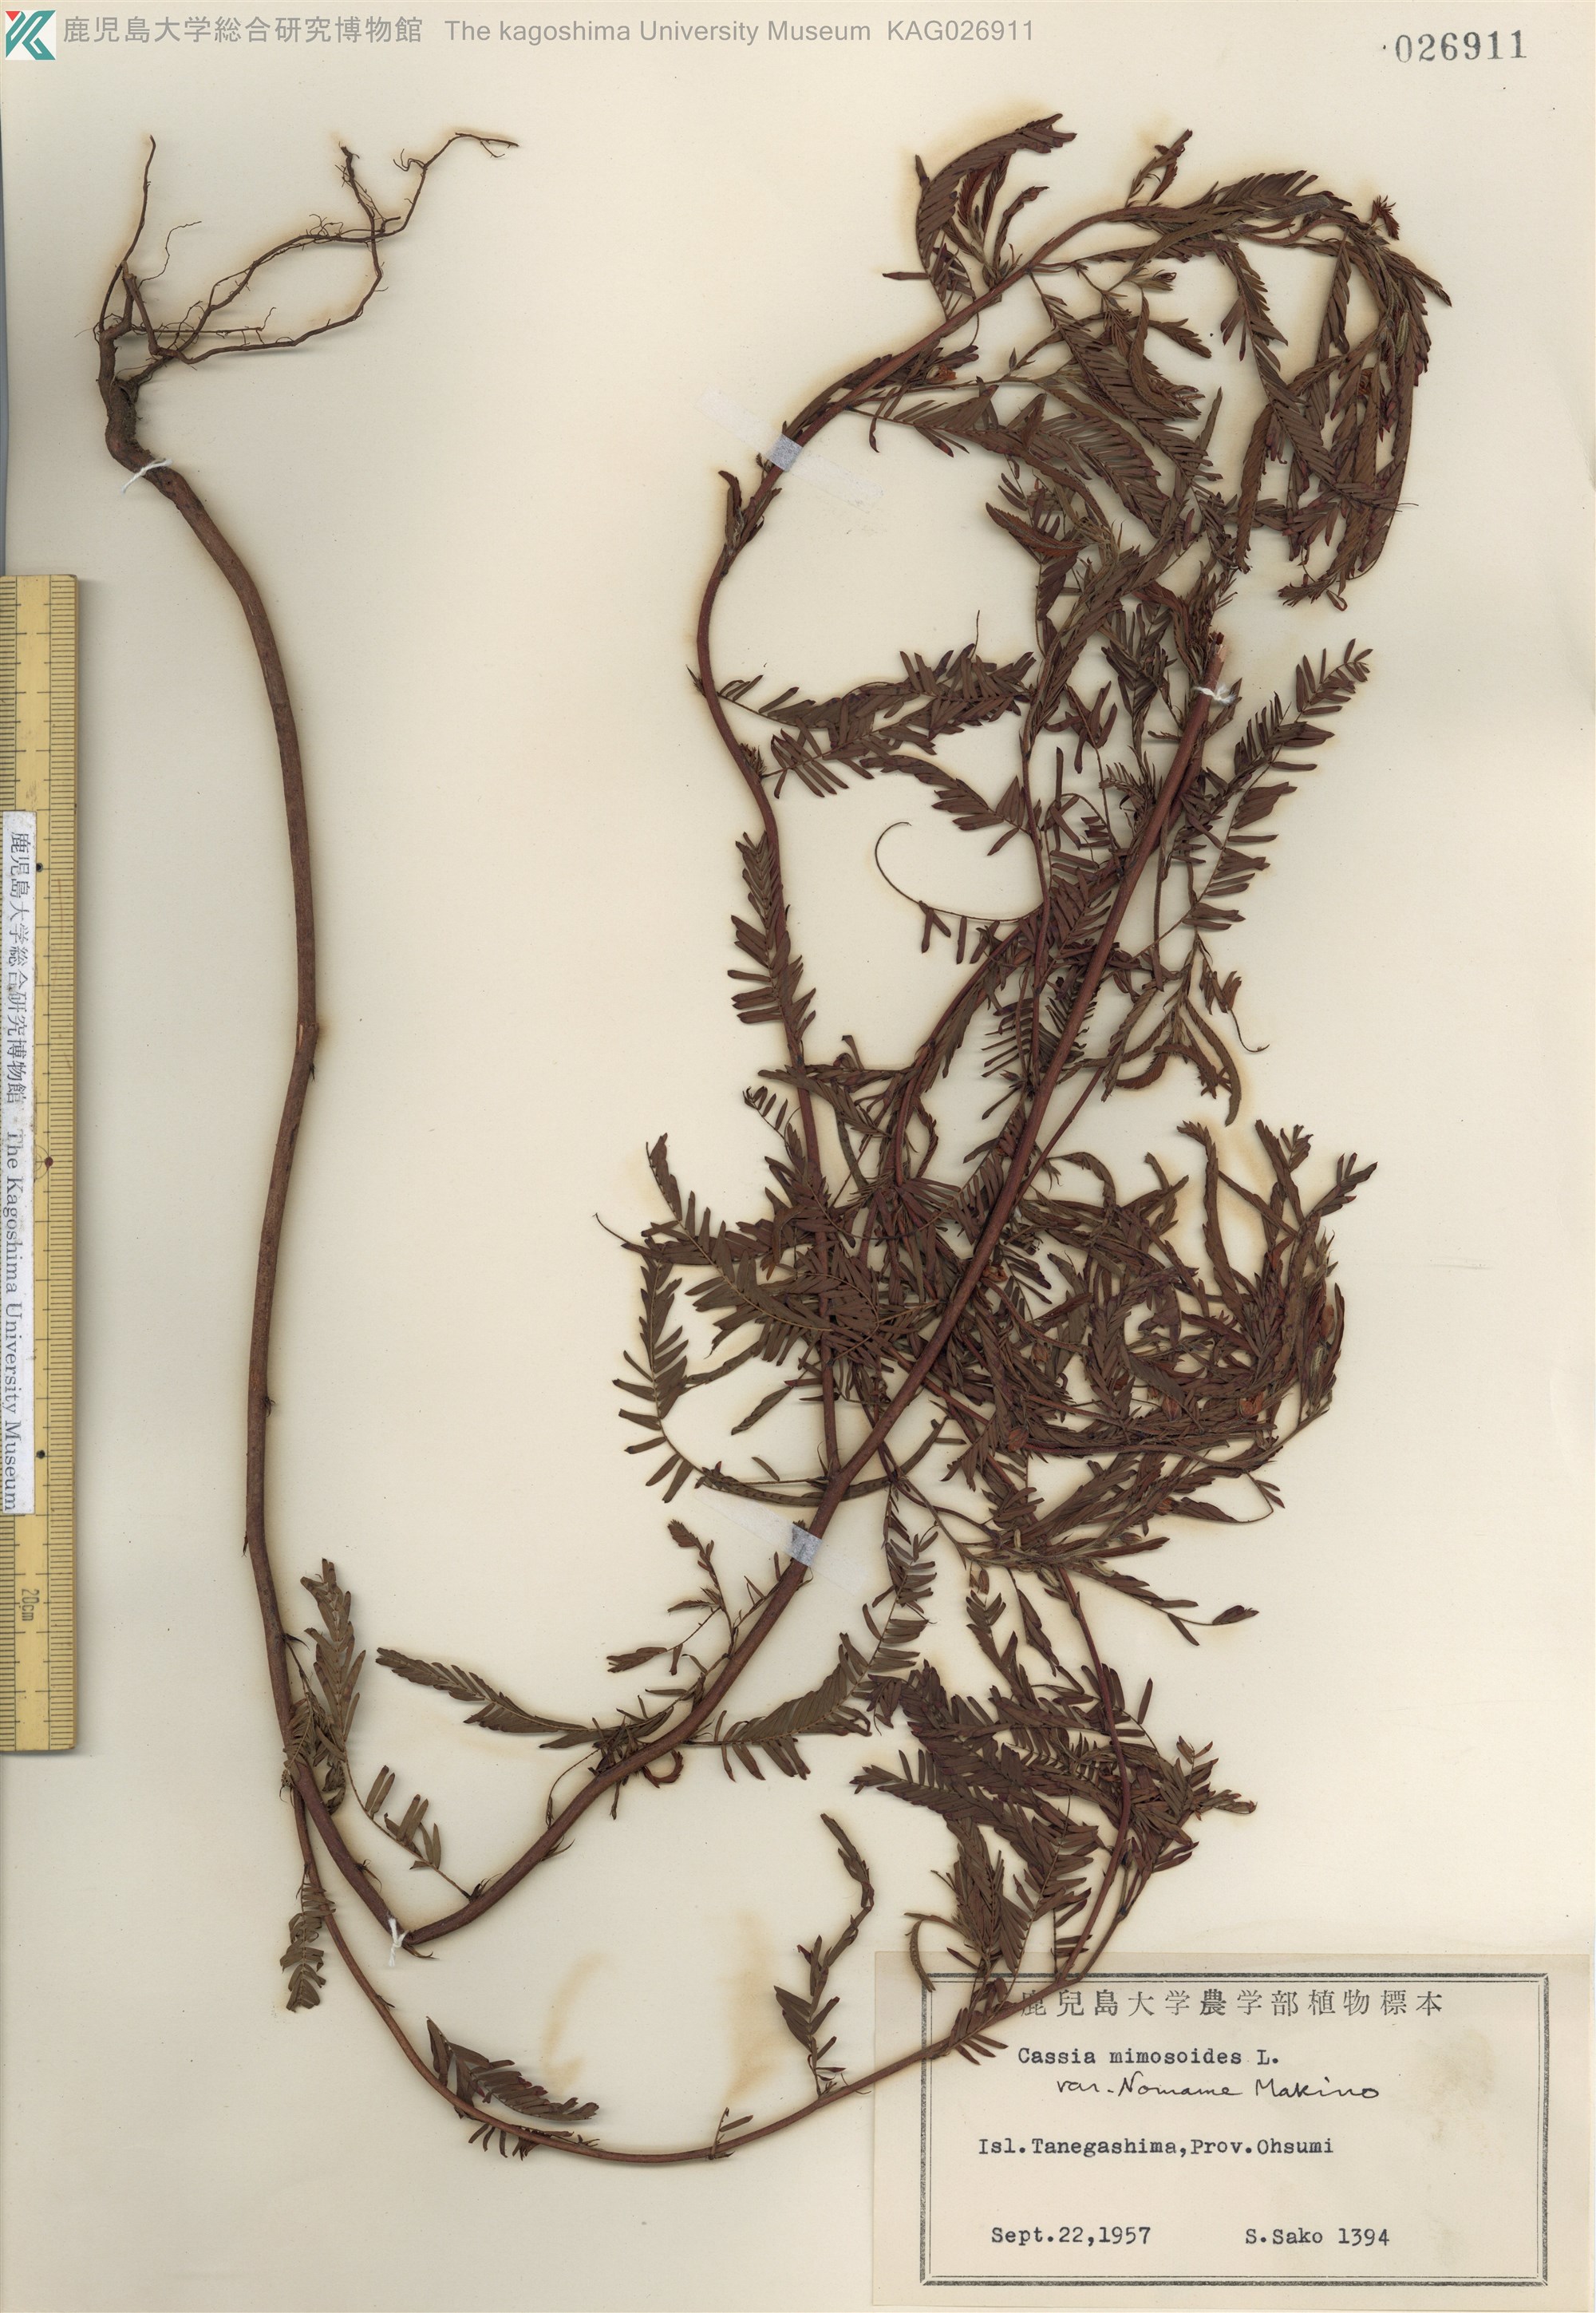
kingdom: Plantae
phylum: Tracheophyta
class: Magnoliopsida
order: Fabales
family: Fabaceae
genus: Chamaecrista
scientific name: Chamaecrista nomame
